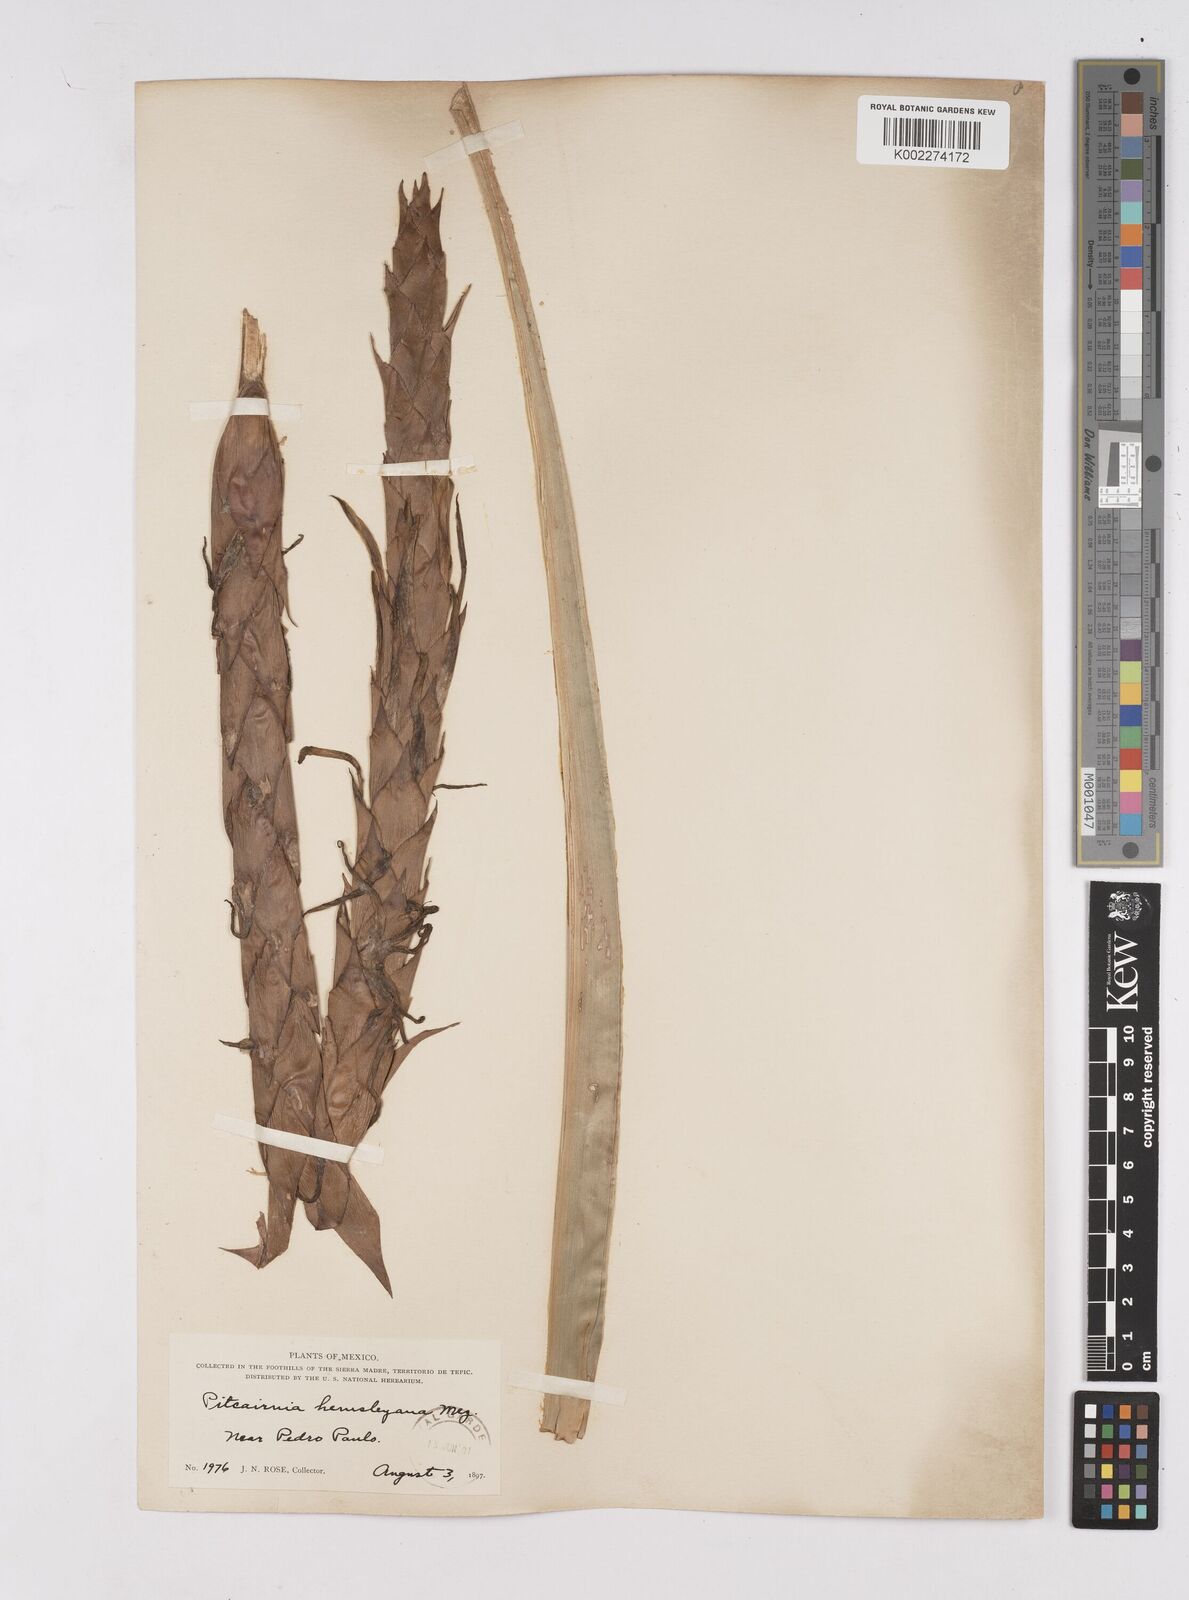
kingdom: Plantae
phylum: Tracheophyta
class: Liliopsida
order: Poales
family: Bromeliaceae
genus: Pitcairnia
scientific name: Pitcairnia imbricata
